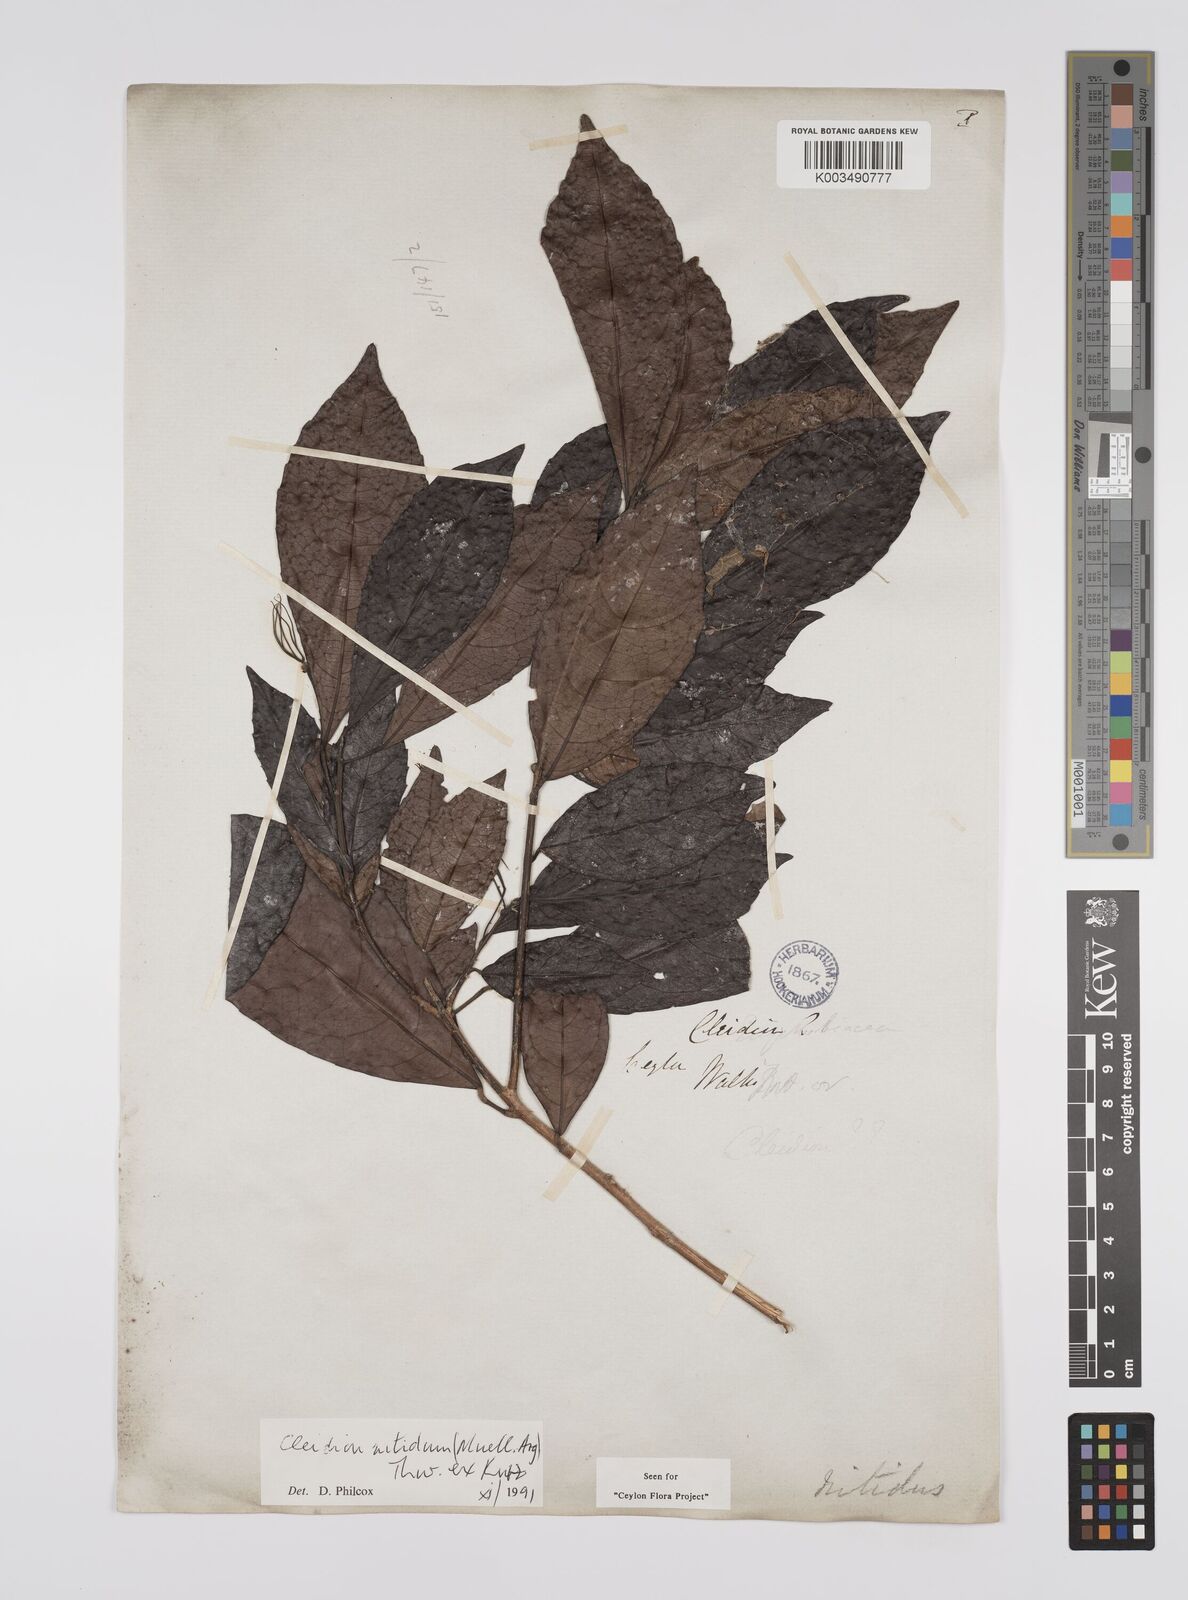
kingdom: Plantae
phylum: Tracheophyta
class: Magnoliopsida
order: Malpighiales
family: Euphorbiaceae
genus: Cleidion
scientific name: Cleidion nitidum
